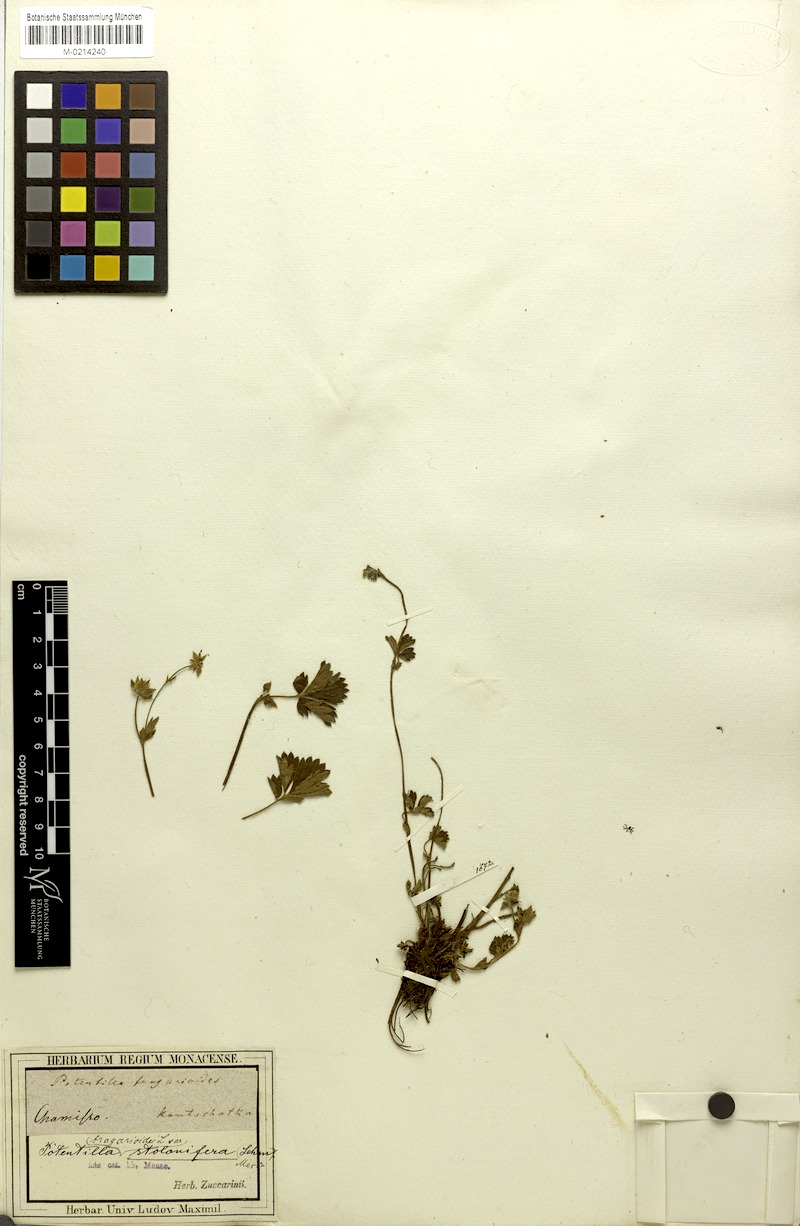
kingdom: Plantae
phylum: Tracheophyta
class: Magnoliopsida
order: Rosales
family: Rosaceae
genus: Potentilla
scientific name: Potentilla stolonifera
